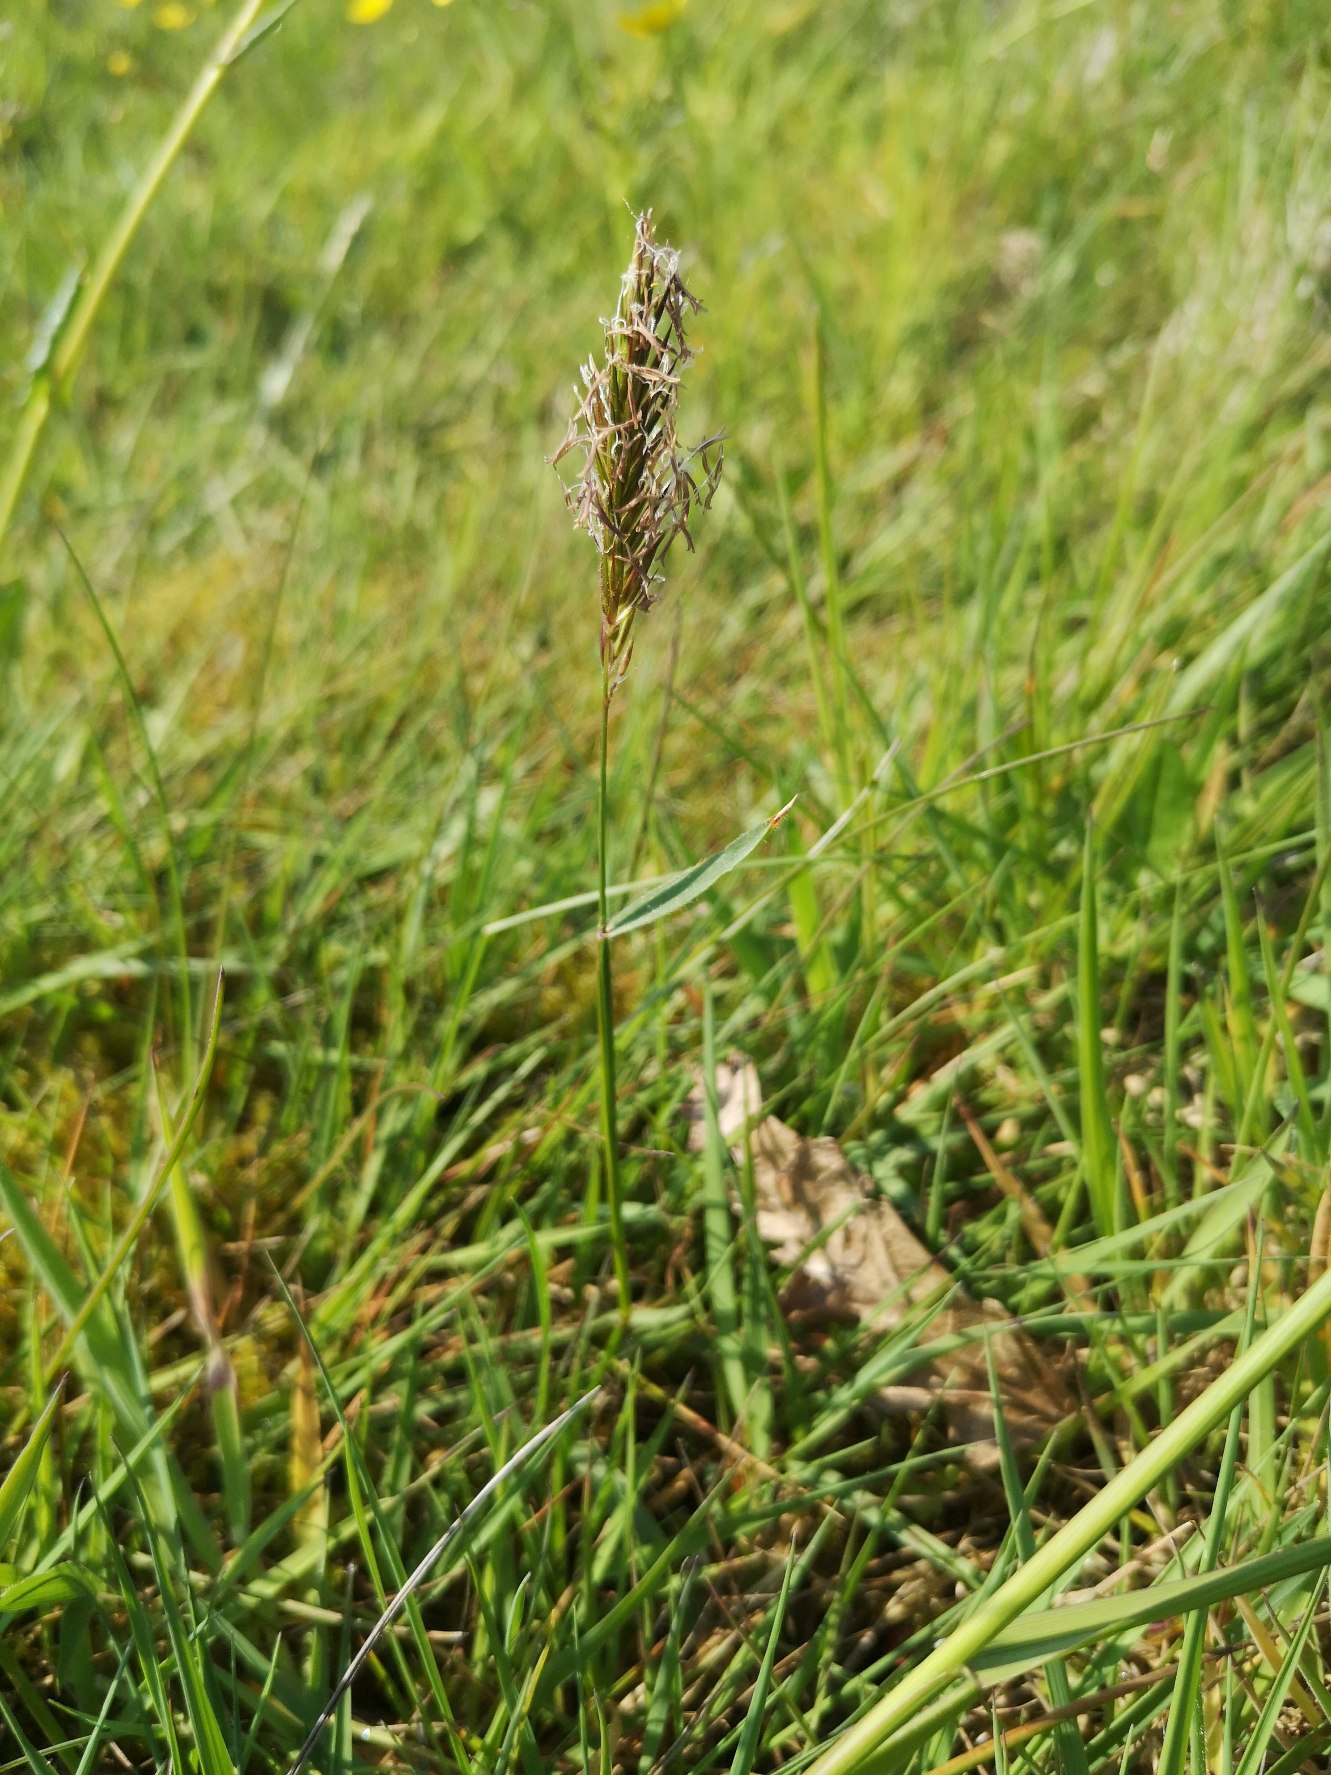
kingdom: Plantae
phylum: Tracheophyta
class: Liliopsida
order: Poales
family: Poaceae
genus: Anthoxanthum
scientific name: Anthoxanthum odoratum
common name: Vellugtende gulaks
